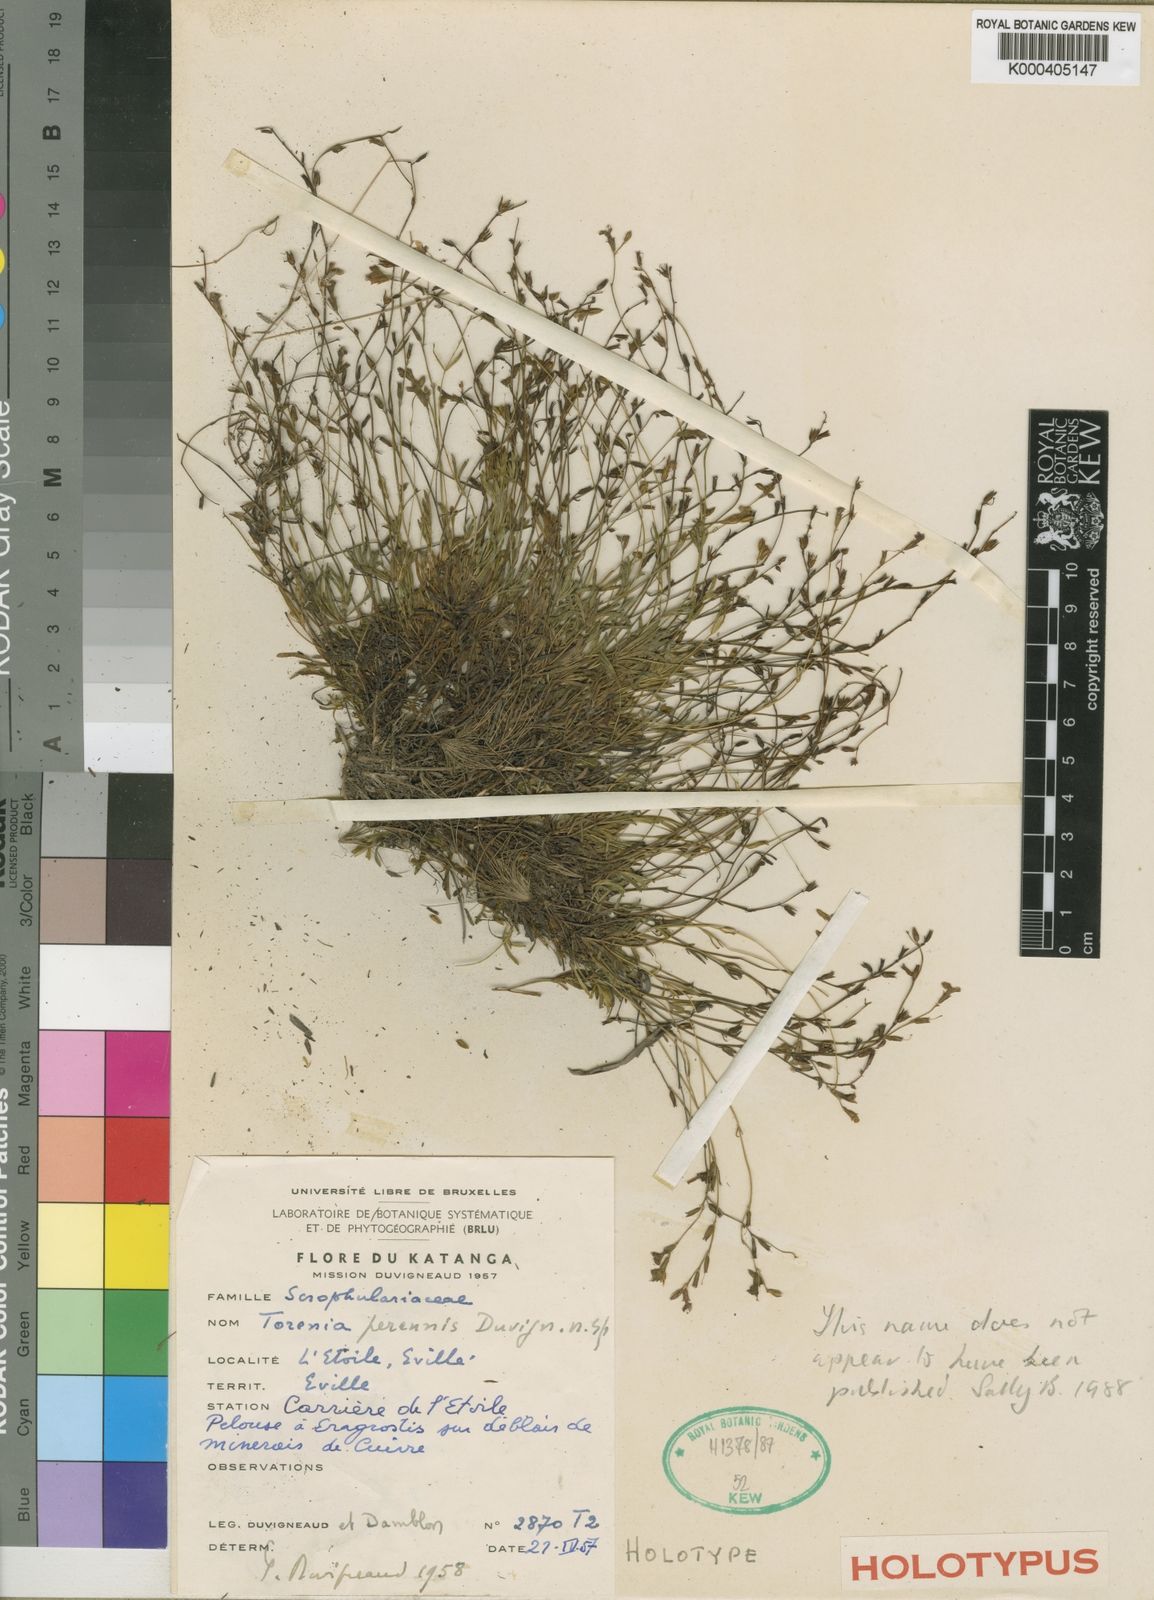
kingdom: Plantae
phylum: Tracheophyta
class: Magnoliopsida
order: Lamiales
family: Linderniaceae
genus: Torenia
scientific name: Torenia
